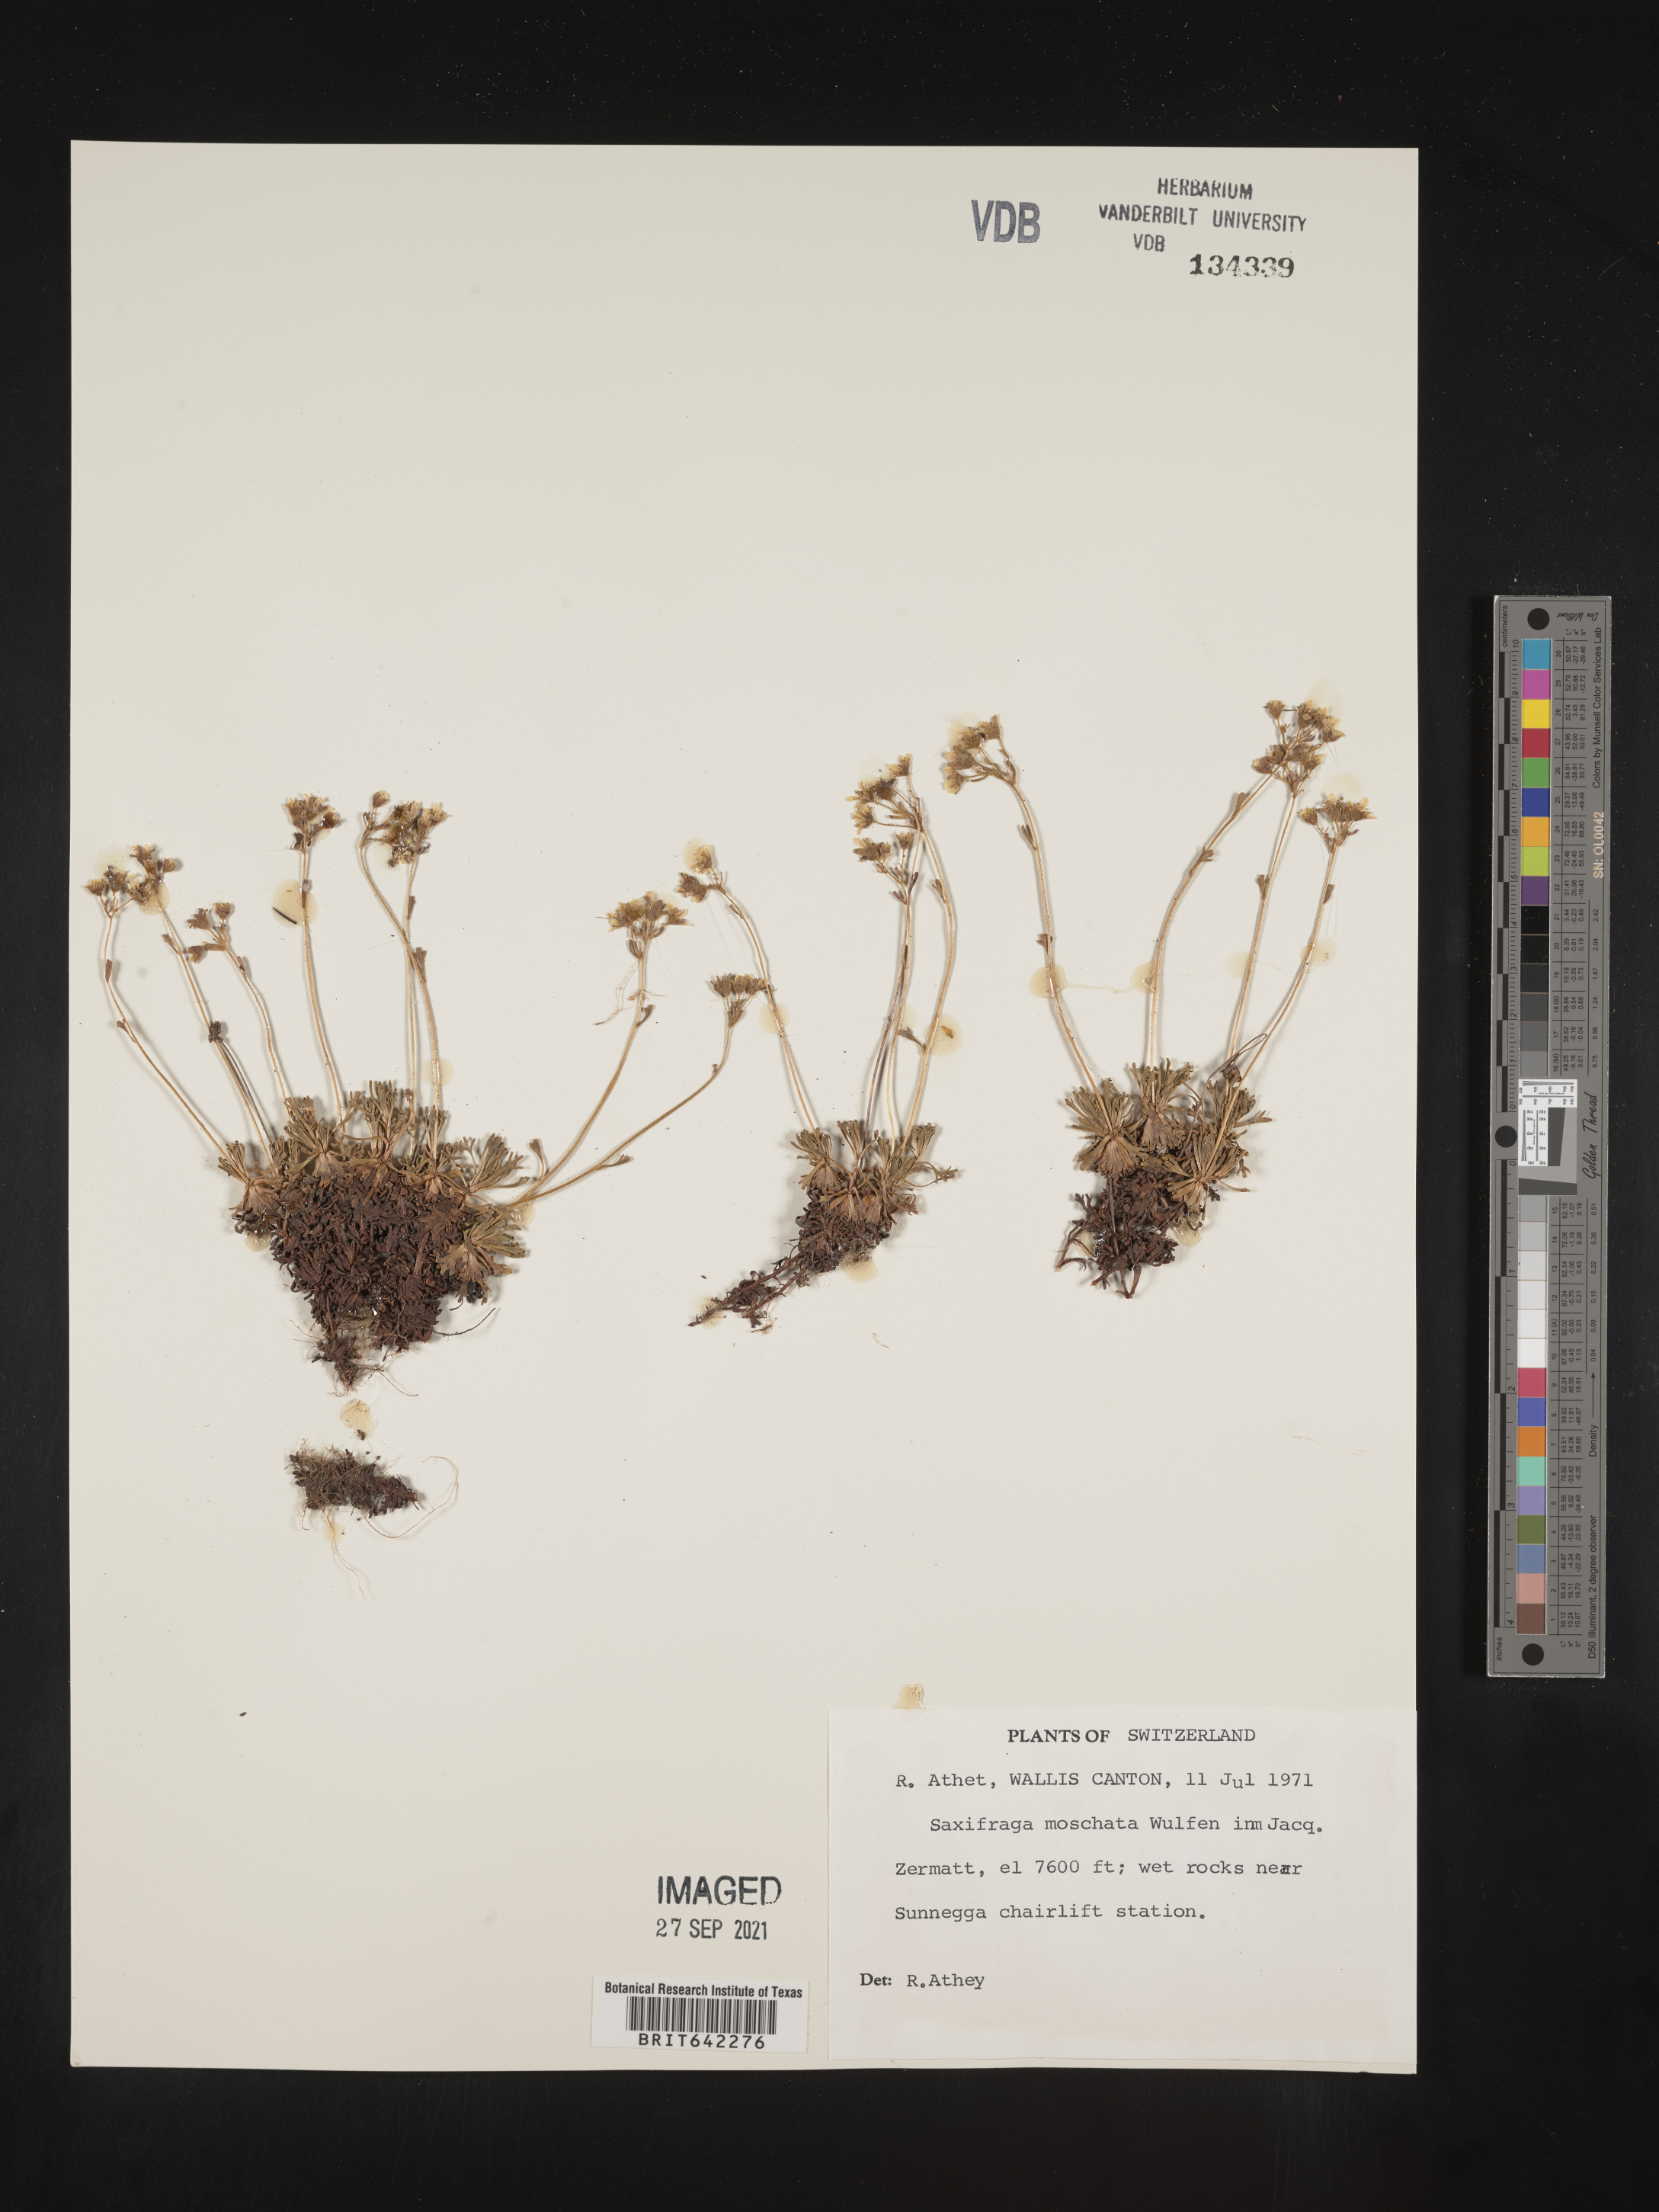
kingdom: Plantae
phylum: Tracheophyta
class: Magnoliopsida
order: Saxifragales
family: Saxifragaceae
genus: Saxifraga
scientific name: Saxifraga
